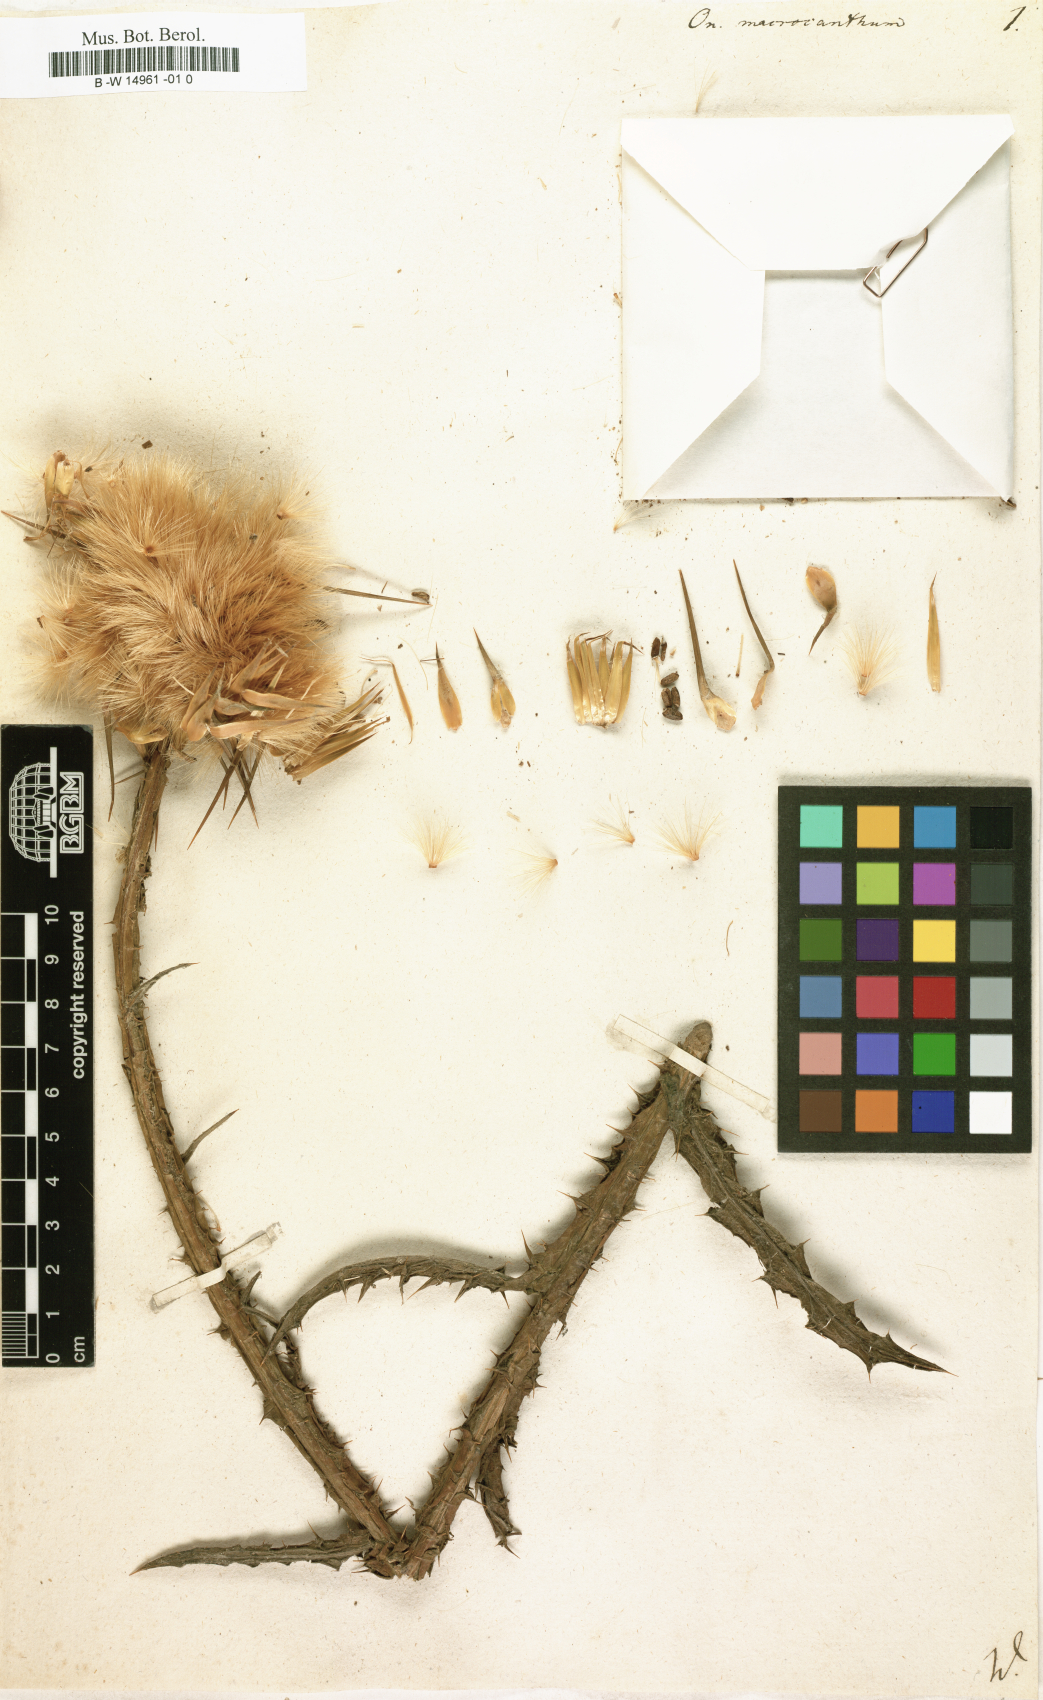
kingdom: Plantae
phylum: Tracheophyta
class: Magnoliopsida
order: Asterales
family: Asteraceae
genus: Onopordum
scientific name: Onopordum macrocanthum
